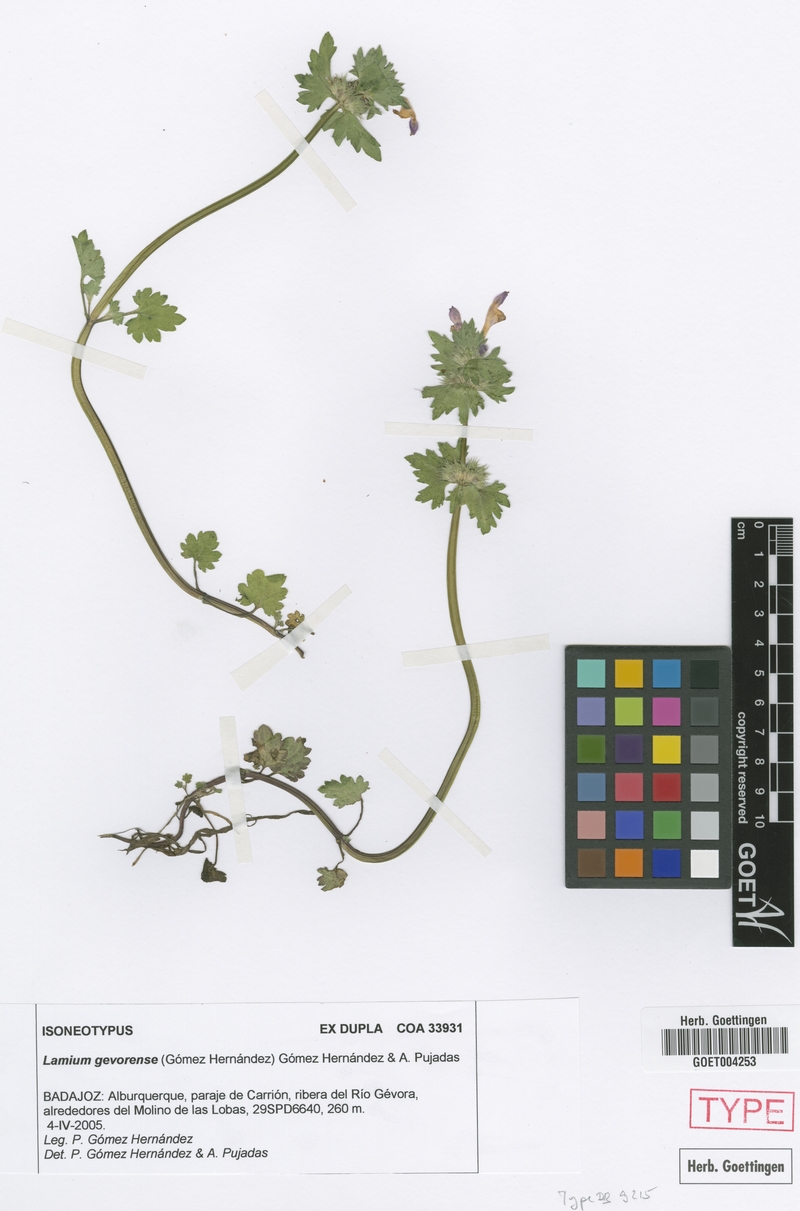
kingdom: Plantae
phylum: Tracheophyta
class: Magnoliopsida
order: Lamiales
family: Lamiaceae
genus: Lamium
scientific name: Lamium gevorense
